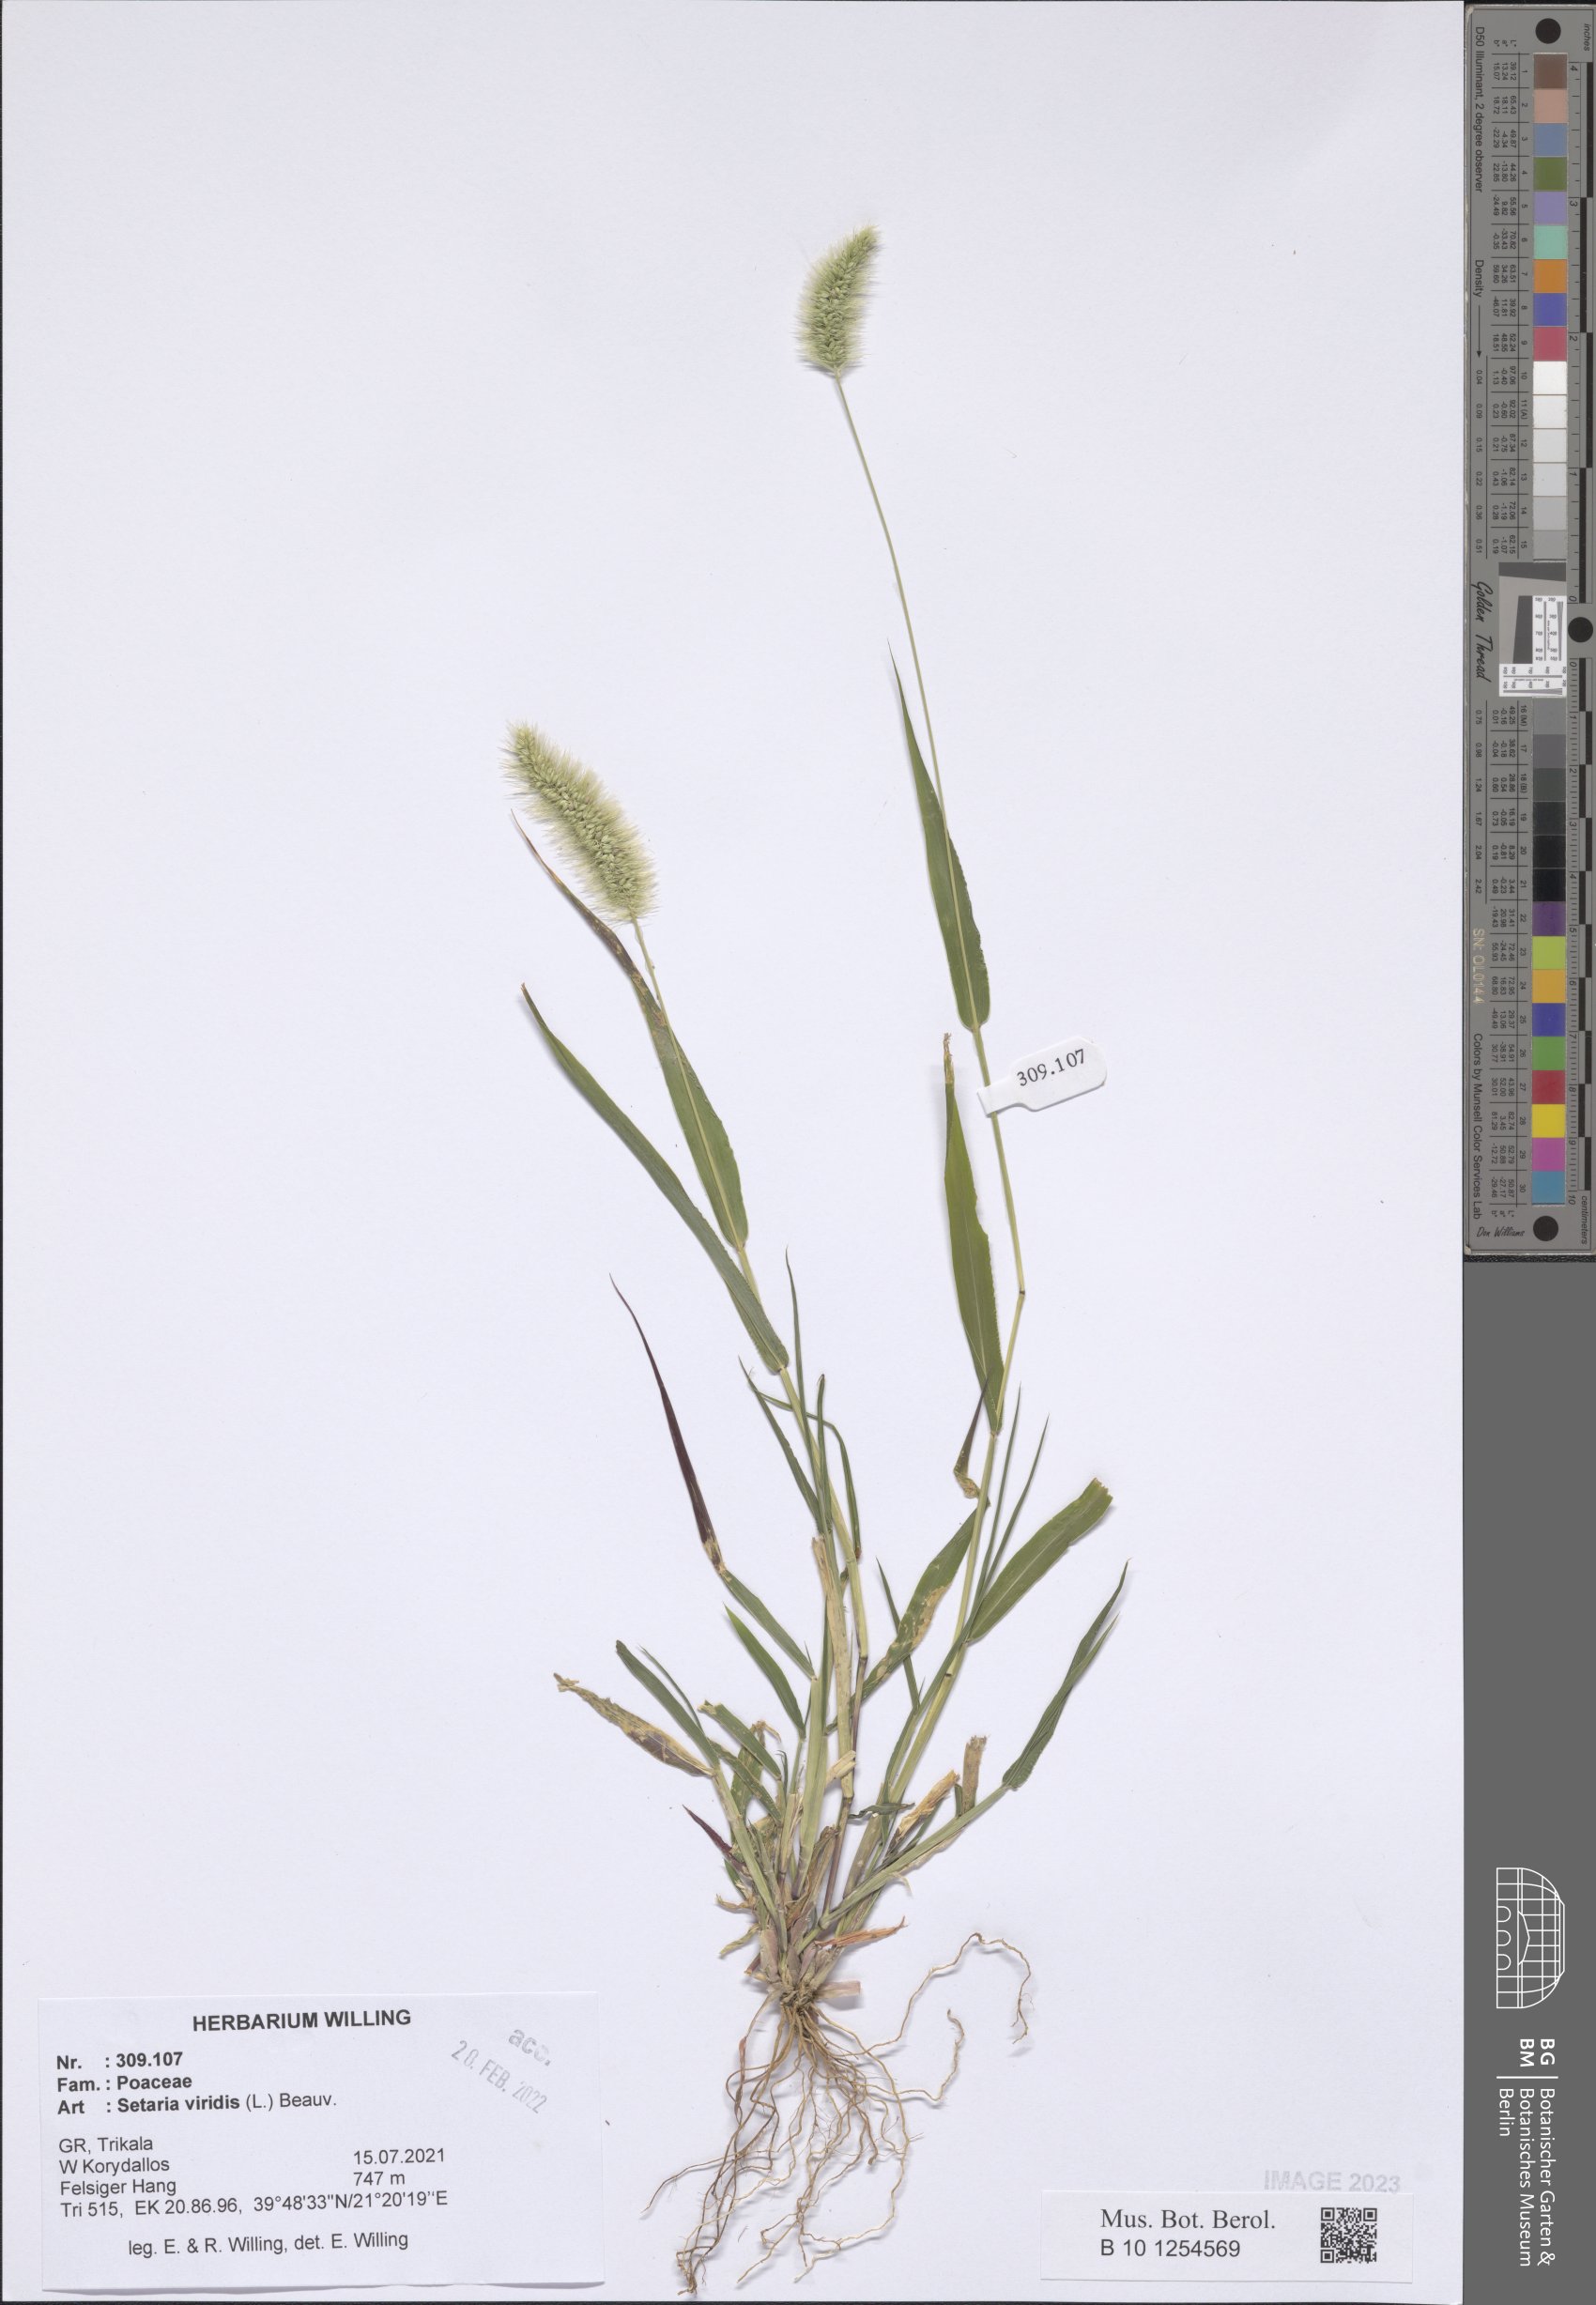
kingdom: Plantae
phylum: Tracheophyta
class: Liliopsida
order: Poales
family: Poaceae
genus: Setaria
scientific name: Setaria viridis
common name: Green bristlegrass
